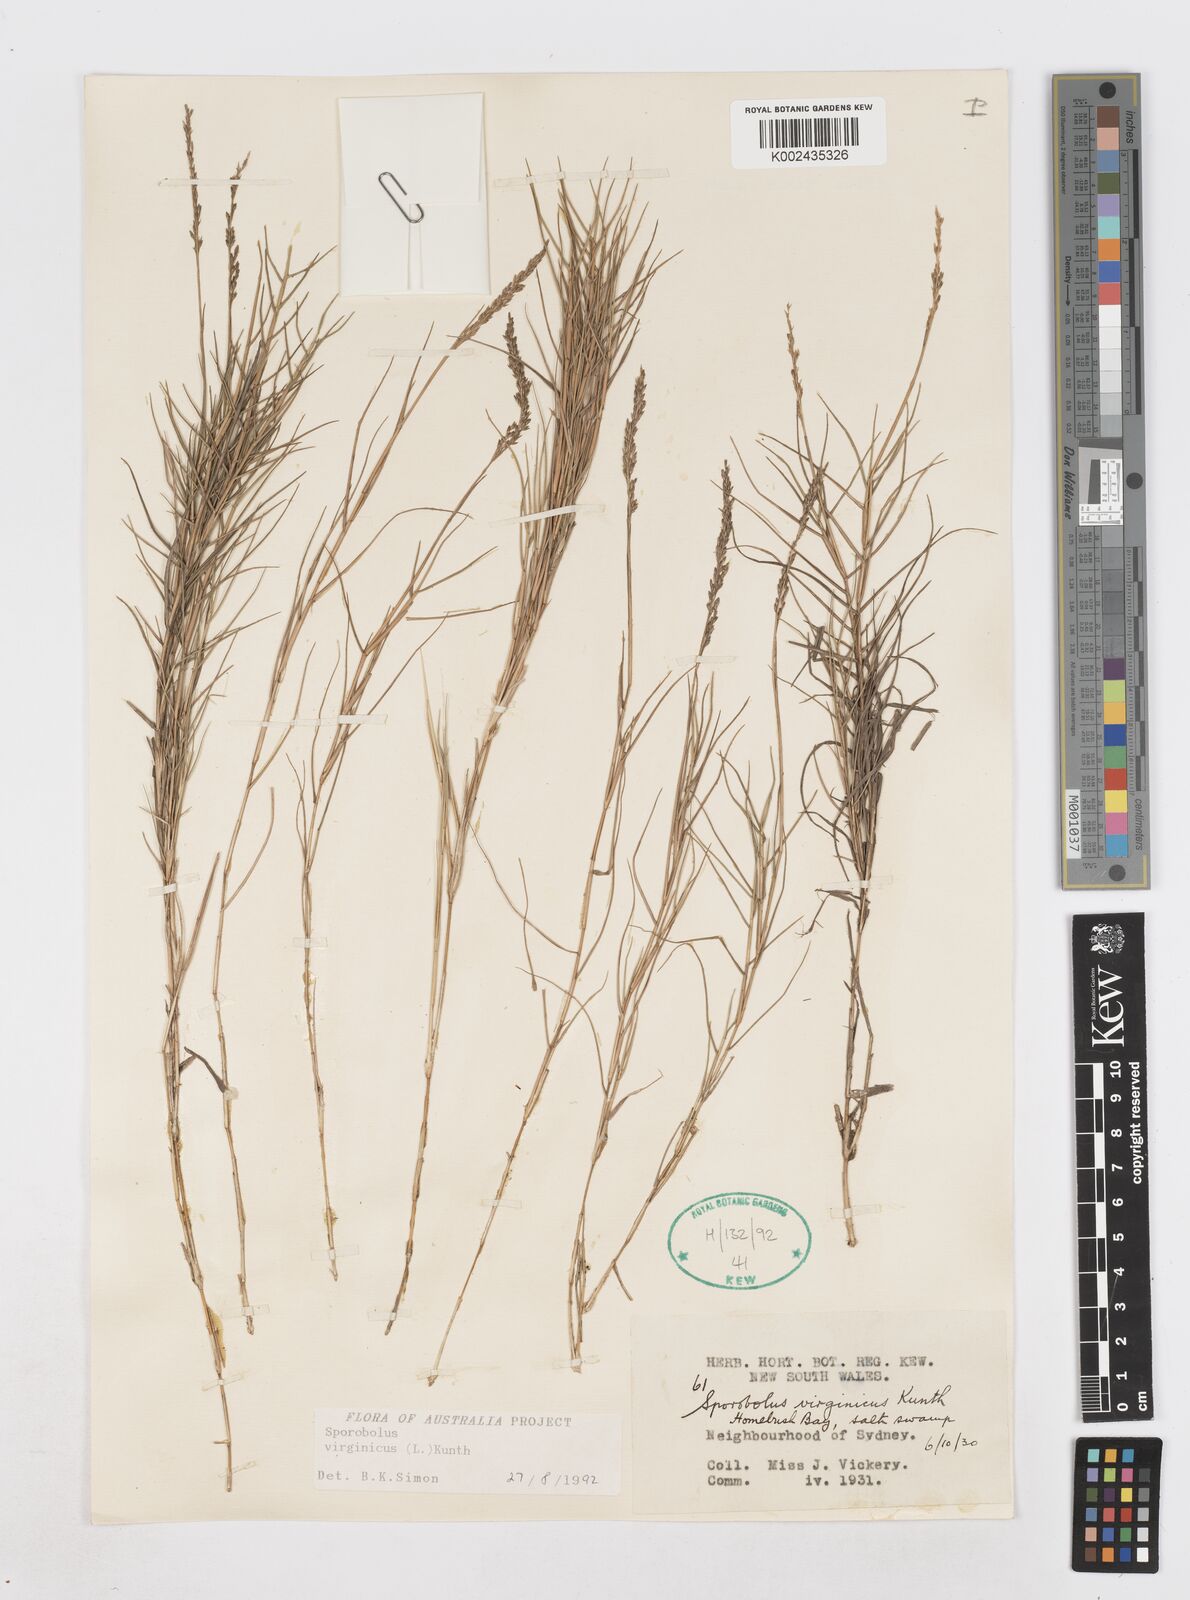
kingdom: Plantae
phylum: Tracheophyta
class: Liliopsida
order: Poales
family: Poaceae
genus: Sporobolus
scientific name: Sporobolus virginicus
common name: Beach dropseed
